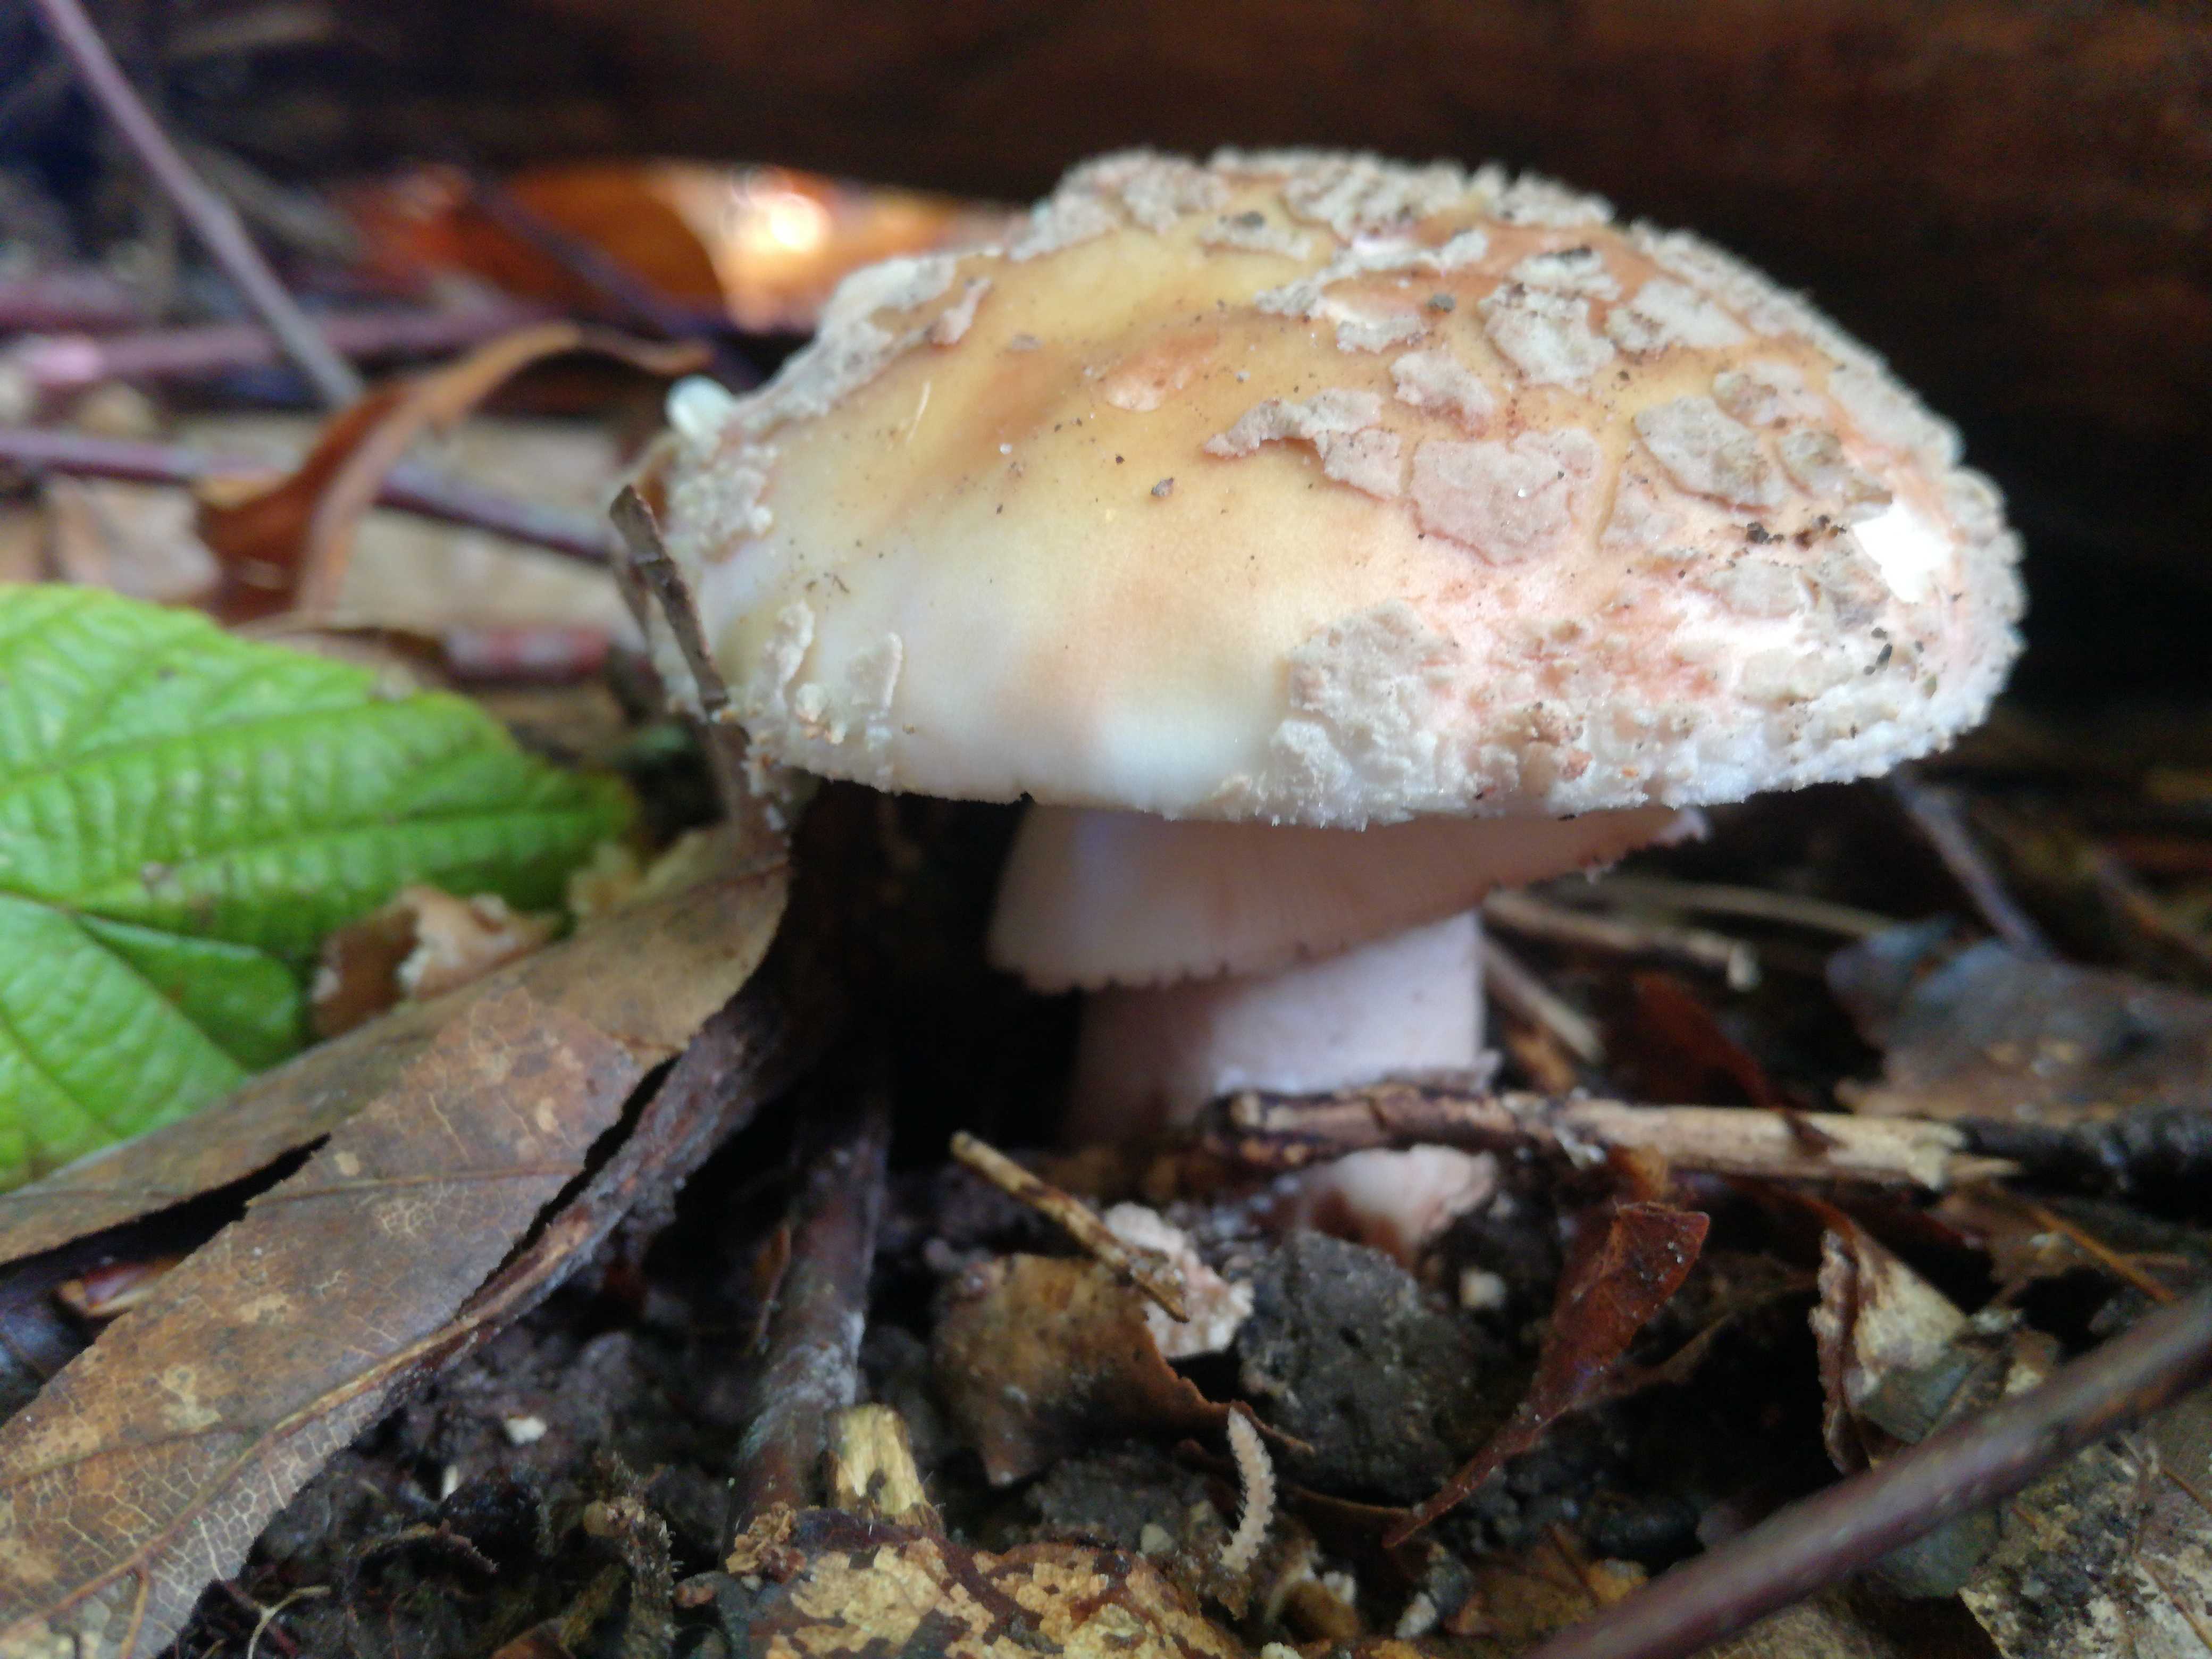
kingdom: Fungi
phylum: Basidiomycota
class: Agaricomycetes
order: Agaricales
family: Amanitaceae
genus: Amanita
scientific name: Amanita rubescens
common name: rødmende fluesvamp
